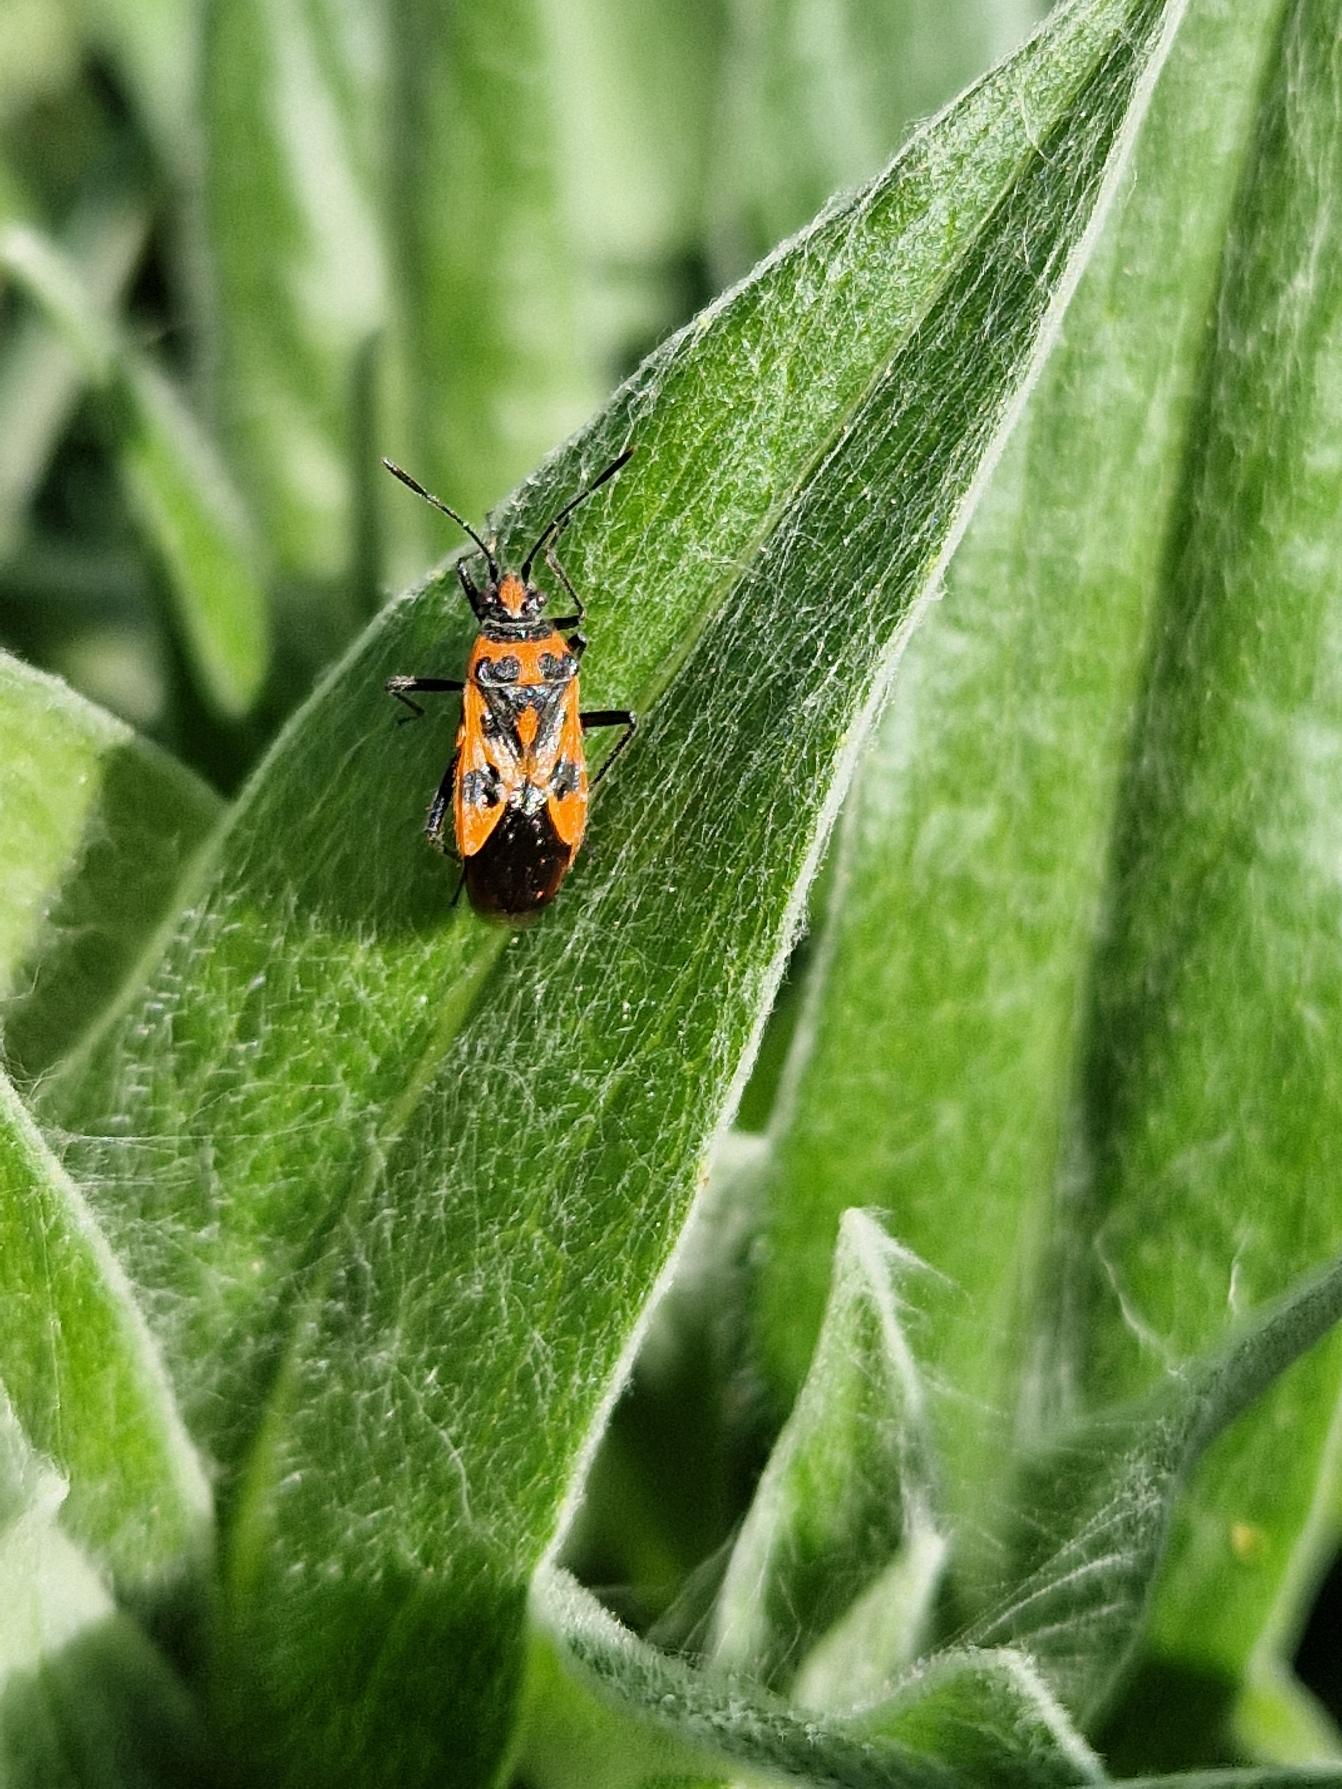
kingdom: Animalia
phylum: Arthropoda
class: Insecta
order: Hemiptera
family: Rhopalidae
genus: Corizus
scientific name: Corizus hyoscyami
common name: Rød kanttæge
